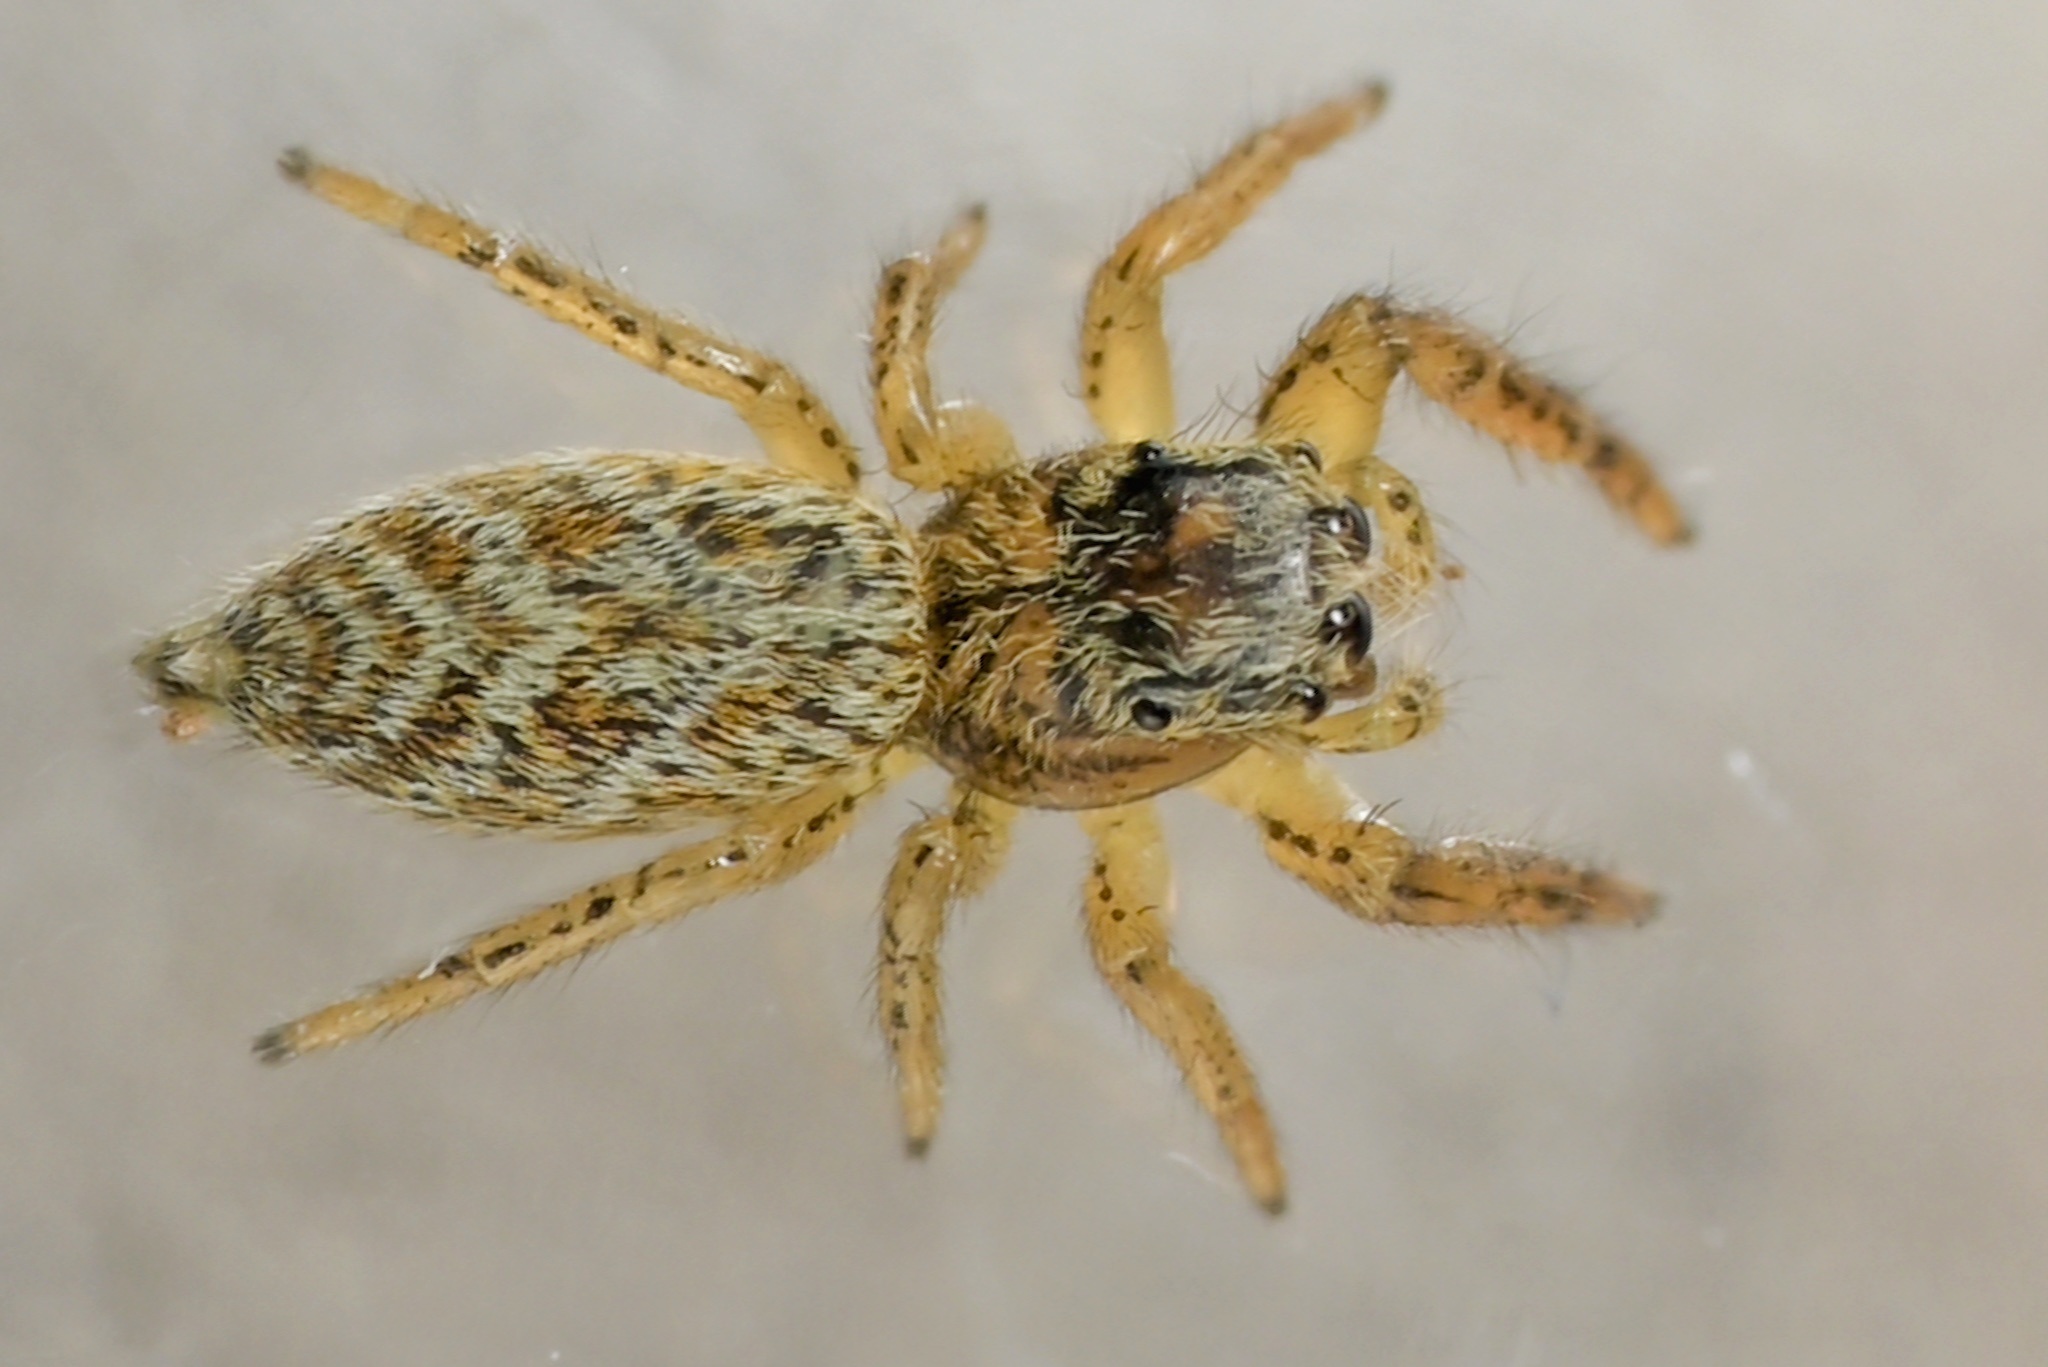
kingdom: Animalia
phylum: Arthropoda
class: Arachnida
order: Araneae
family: Salticidae
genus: Marpissa
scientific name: Marpissa radiata
